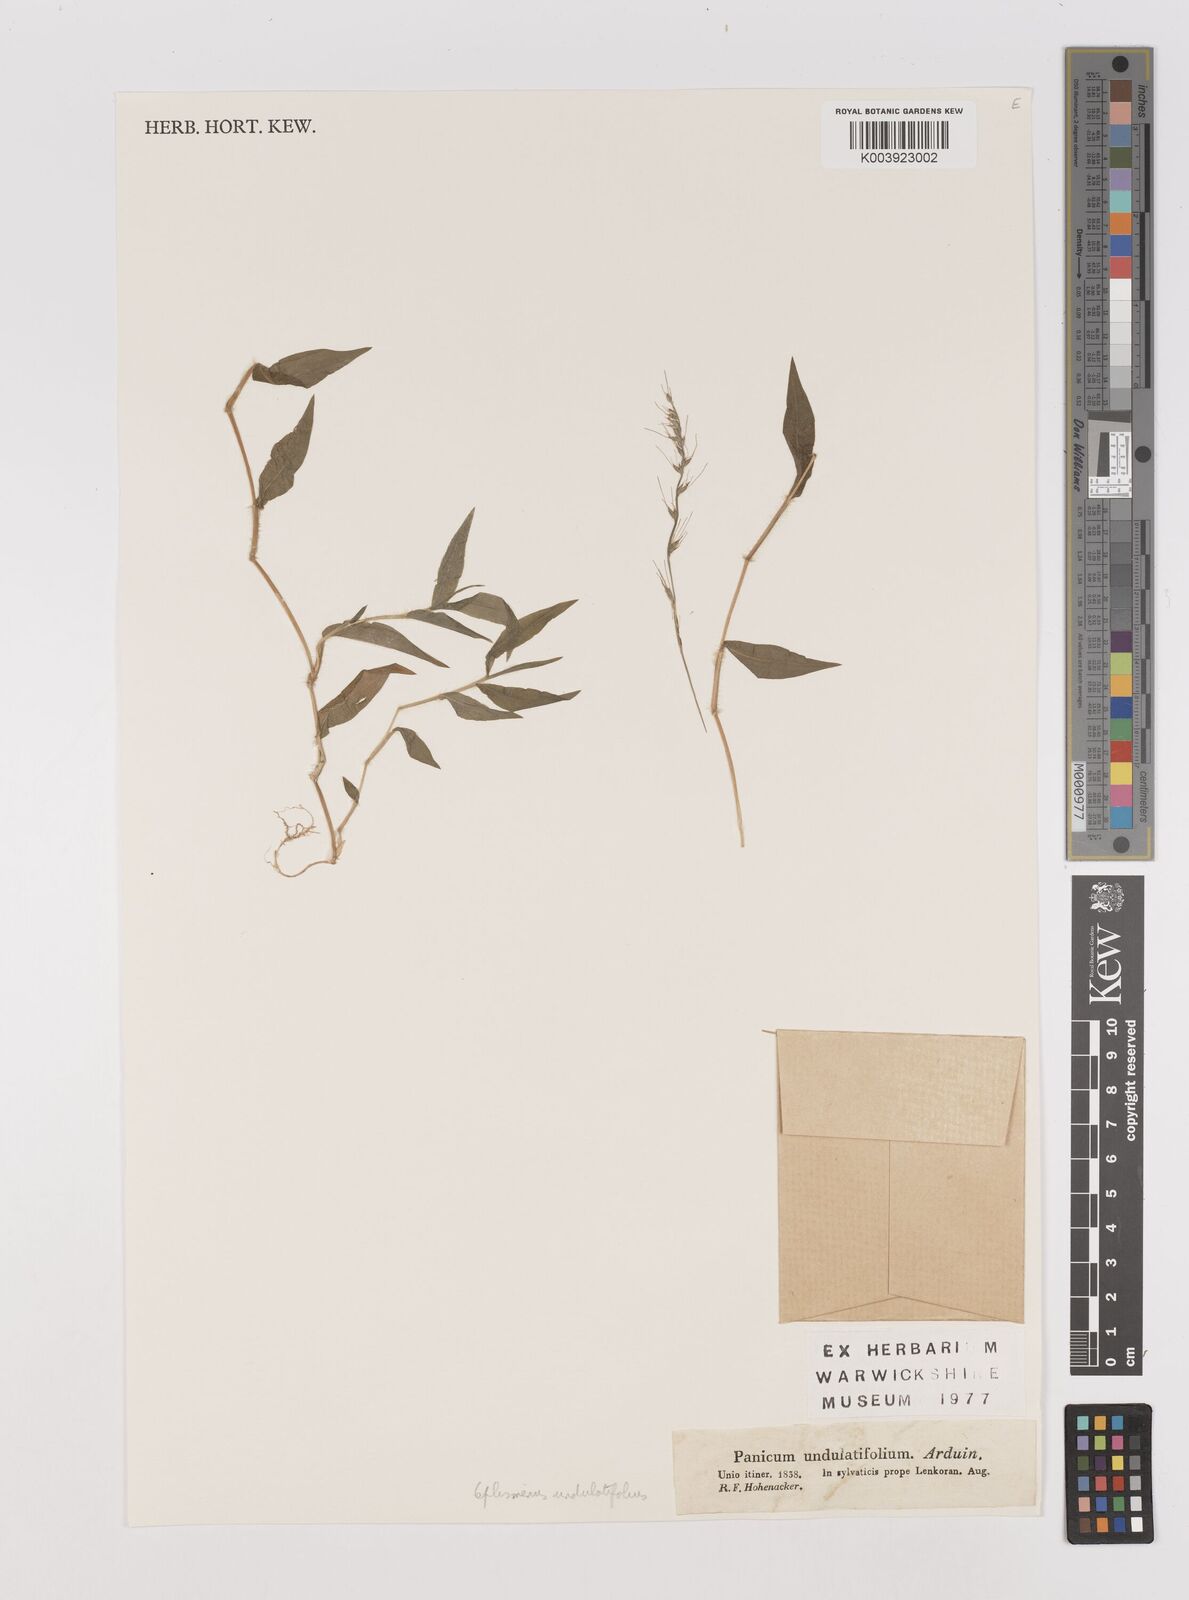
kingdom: Plantae
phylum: Tracheophyta
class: Liliopsida
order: Poales
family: Poaceae
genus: Oplismenus
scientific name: Oplismenus undulatifolius
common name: Wavyleaf basketgrass
